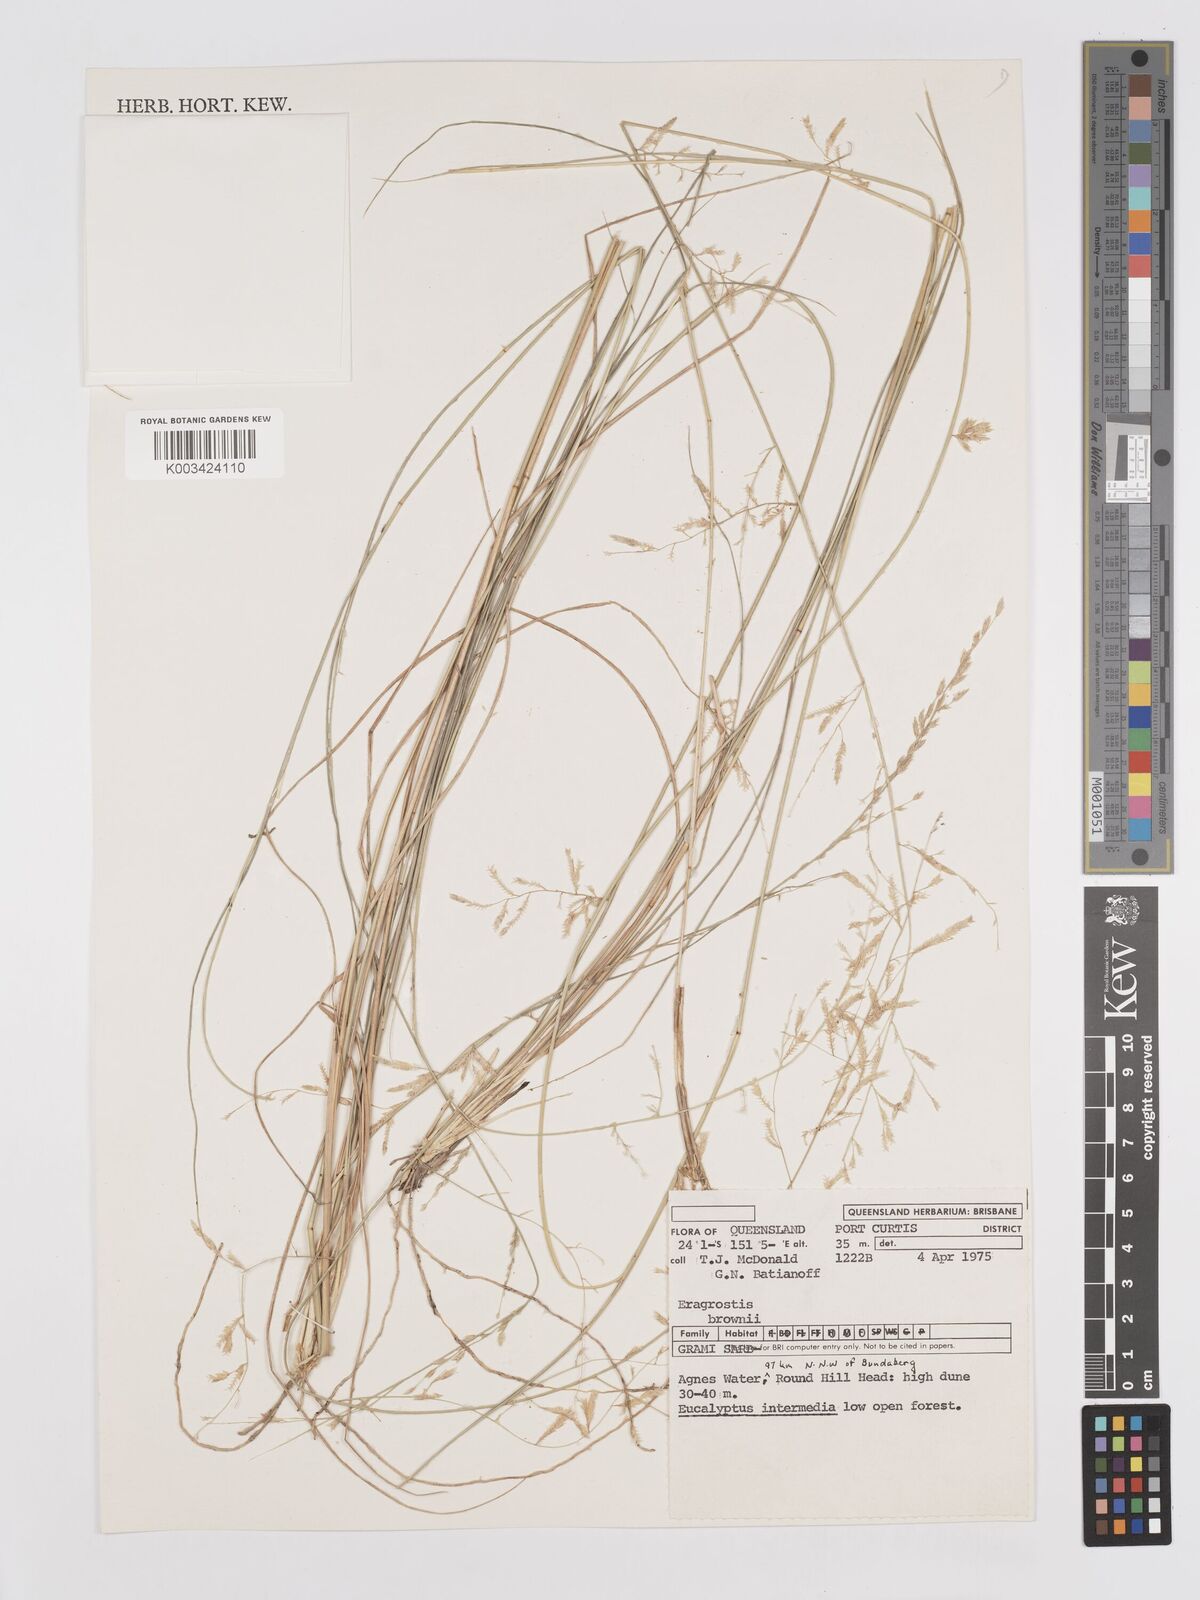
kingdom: Plantae
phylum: Tracheophyta
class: Liliopsida
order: Poales
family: Poaceae
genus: Eragrostis
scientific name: Eragrostis brownii
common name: Lovegrass
